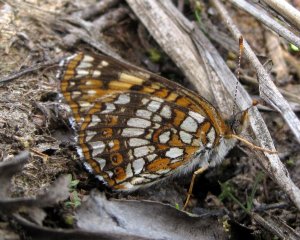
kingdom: Animalia
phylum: Arthropoda
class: Insecta
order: Lepidoptera
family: Nymphalidae
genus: Chlosyne
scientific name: Chlosyne harrisii
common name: Harris's Checkerspot
